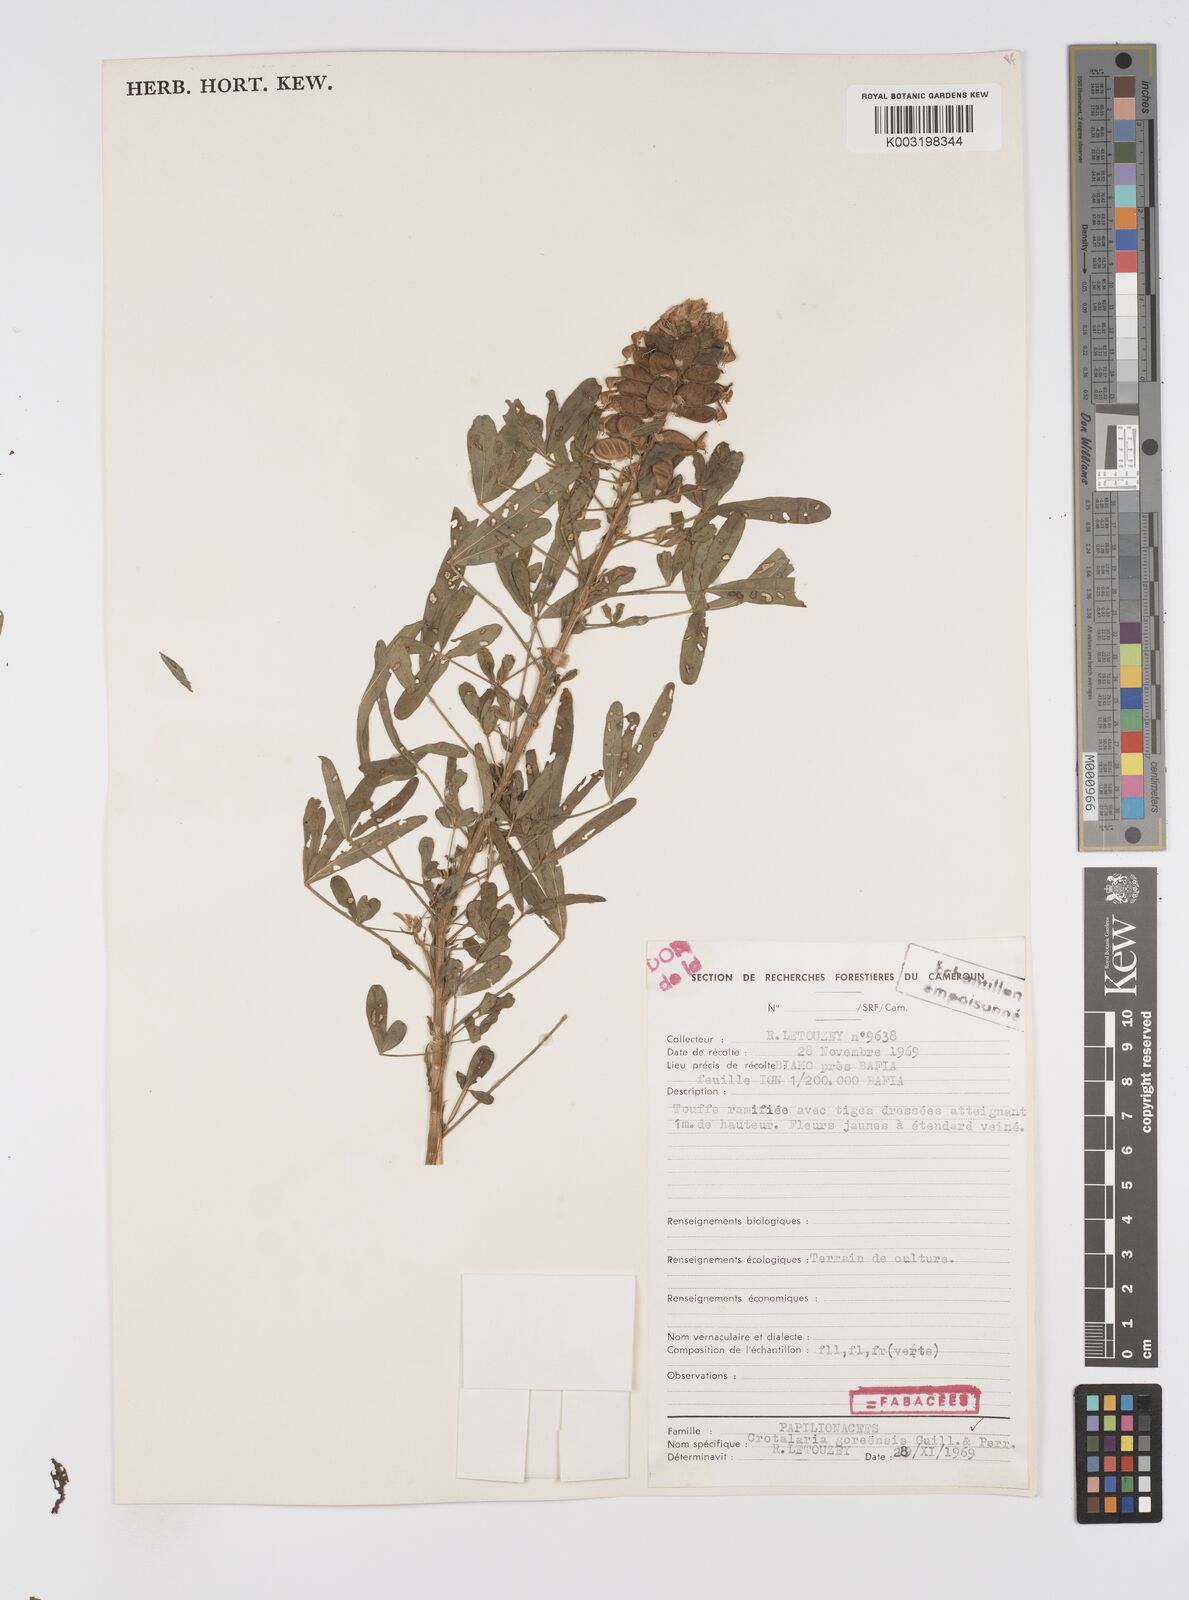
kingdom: Plantae
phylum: Tracheophyta
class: Magnoliopsida
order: Fabales
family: Fabaceae
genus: Crotalaria
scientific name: Crotalaria goreensis
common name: Gambia-pea
